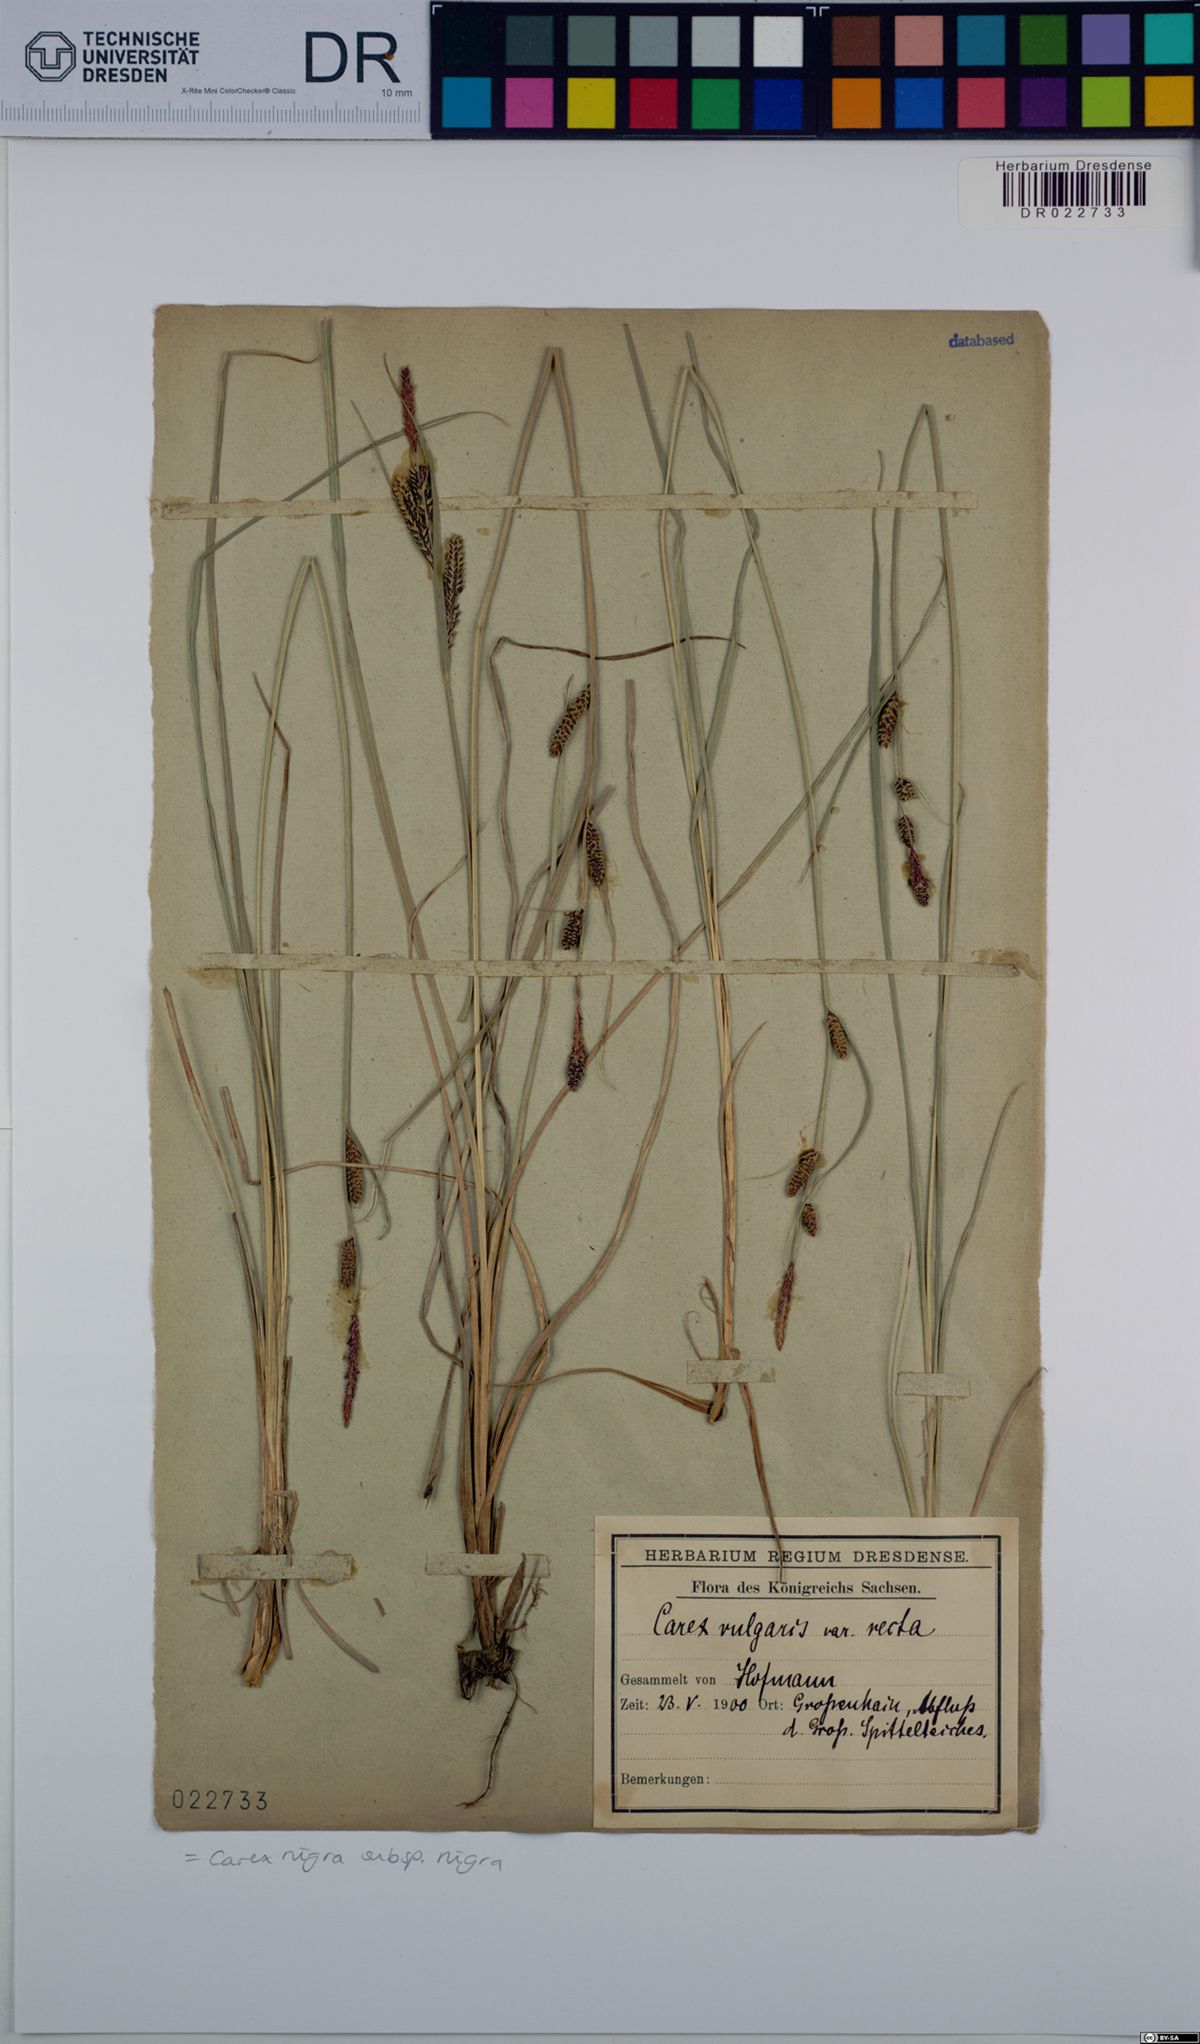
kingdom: Plantae
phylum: Tracheophyta
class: Liliopsida
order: Poales
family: Cyperaceae
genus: Carex
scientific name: Carex nigra
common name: Common sedge
